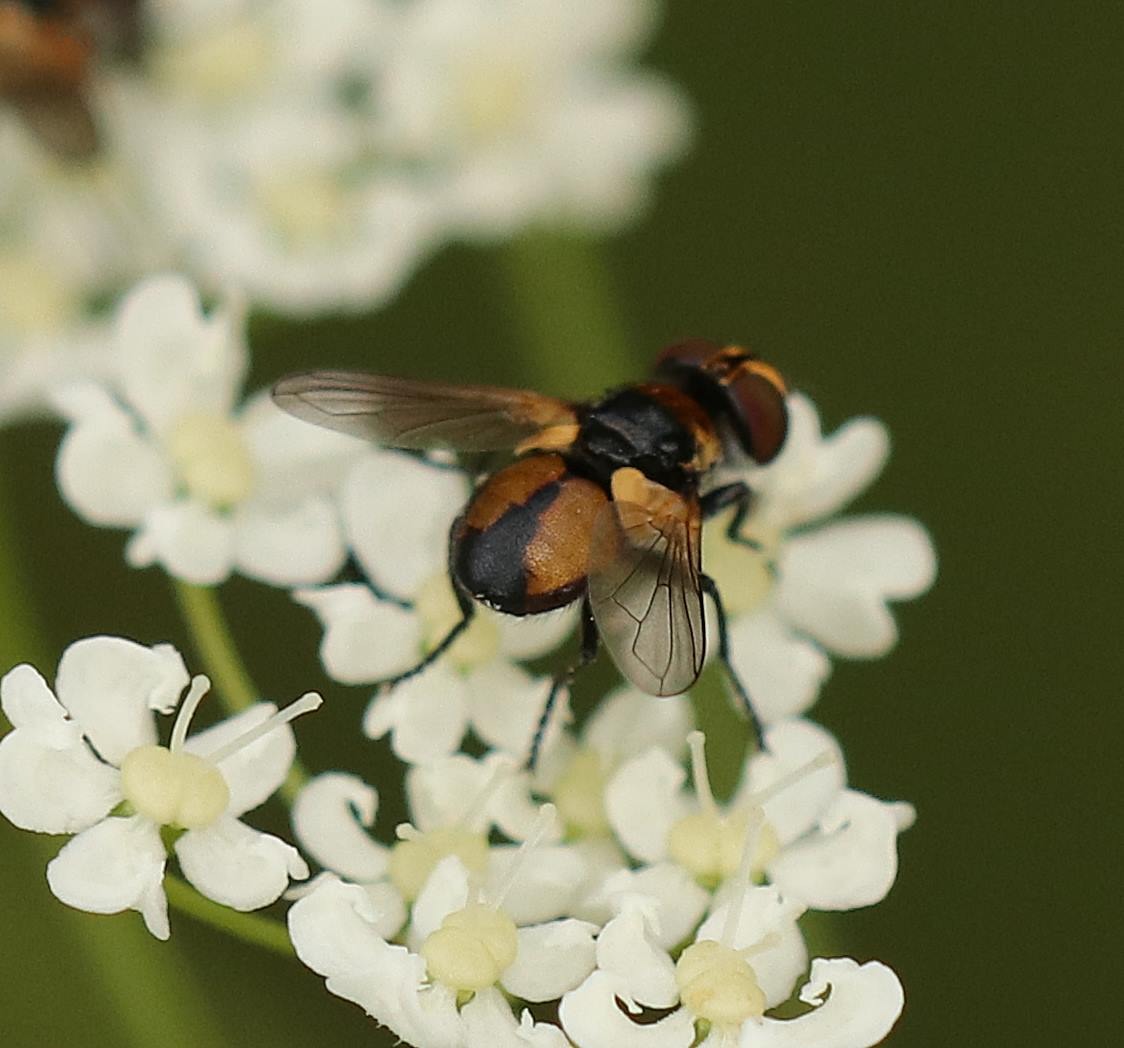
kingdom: Animalia
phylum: Arthropoda
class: Insecta
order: Diptera
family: Tachinidae
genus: Cistogaster
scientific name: Cistogaster globosa
